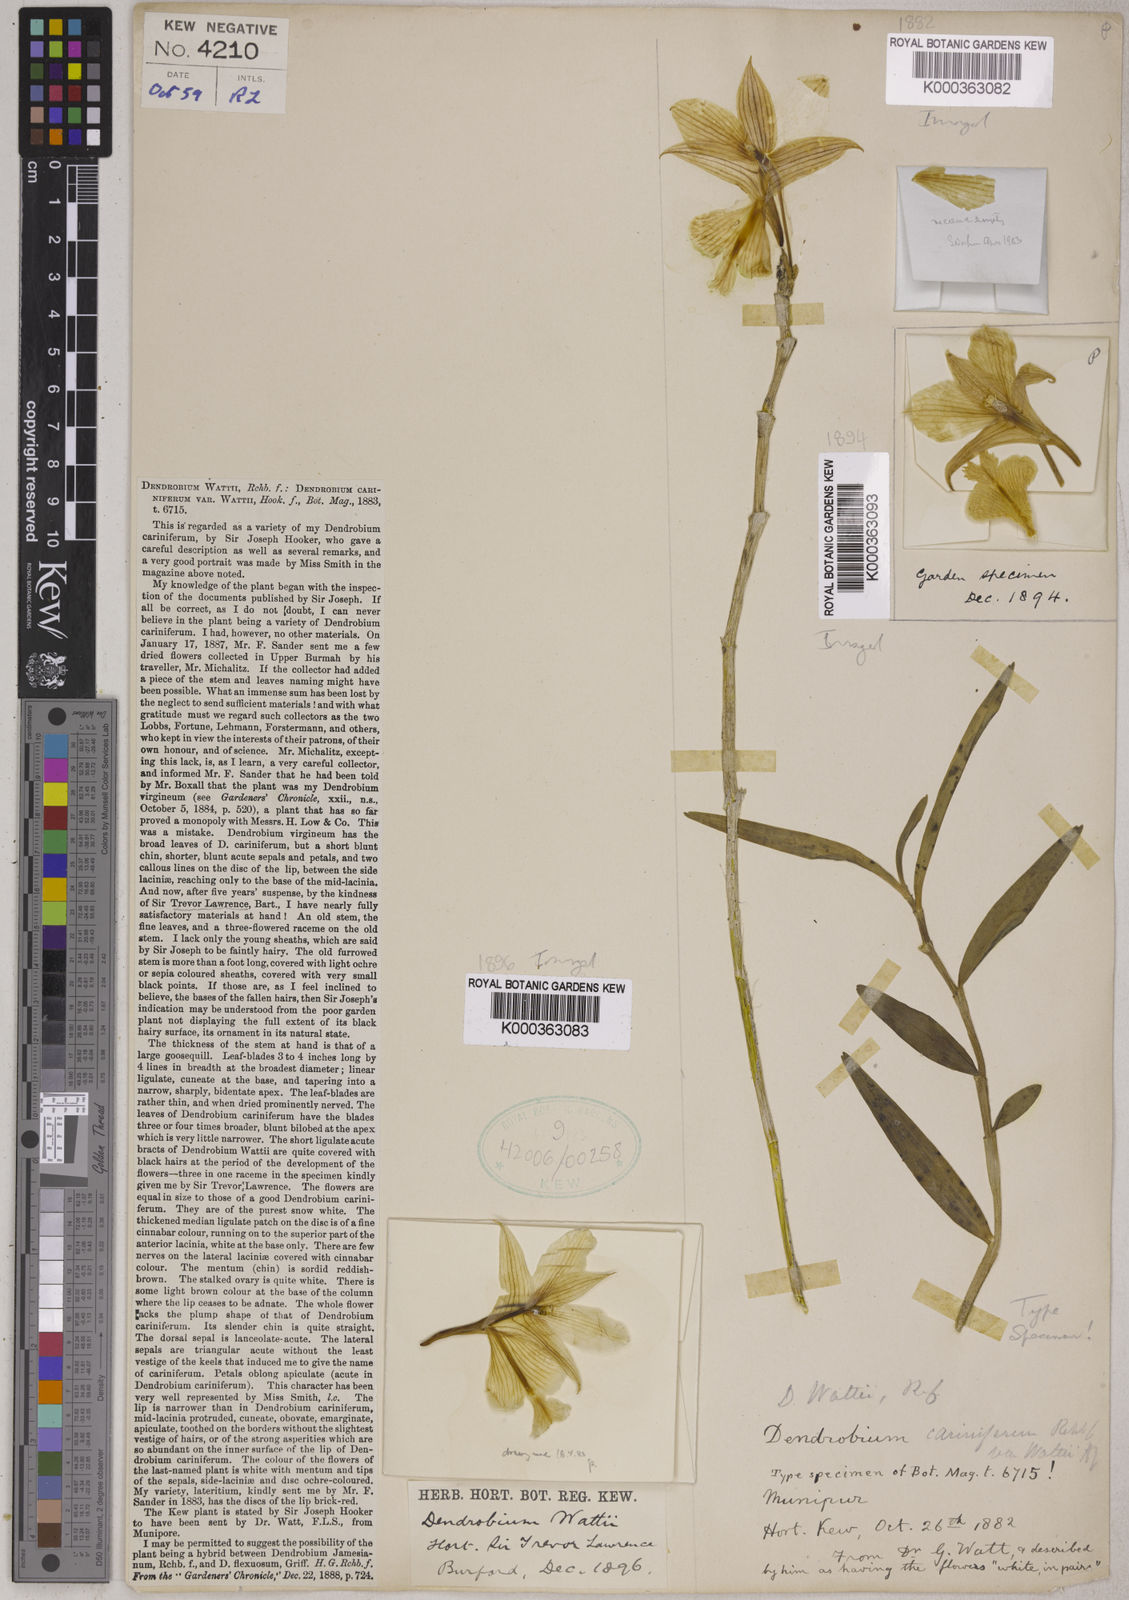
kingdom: Plantae
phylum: Tracheophyta
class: Liliopsida
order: Asparagales
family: Orchidaceae
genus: Dendrobium
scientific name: Dendrobium wattii
